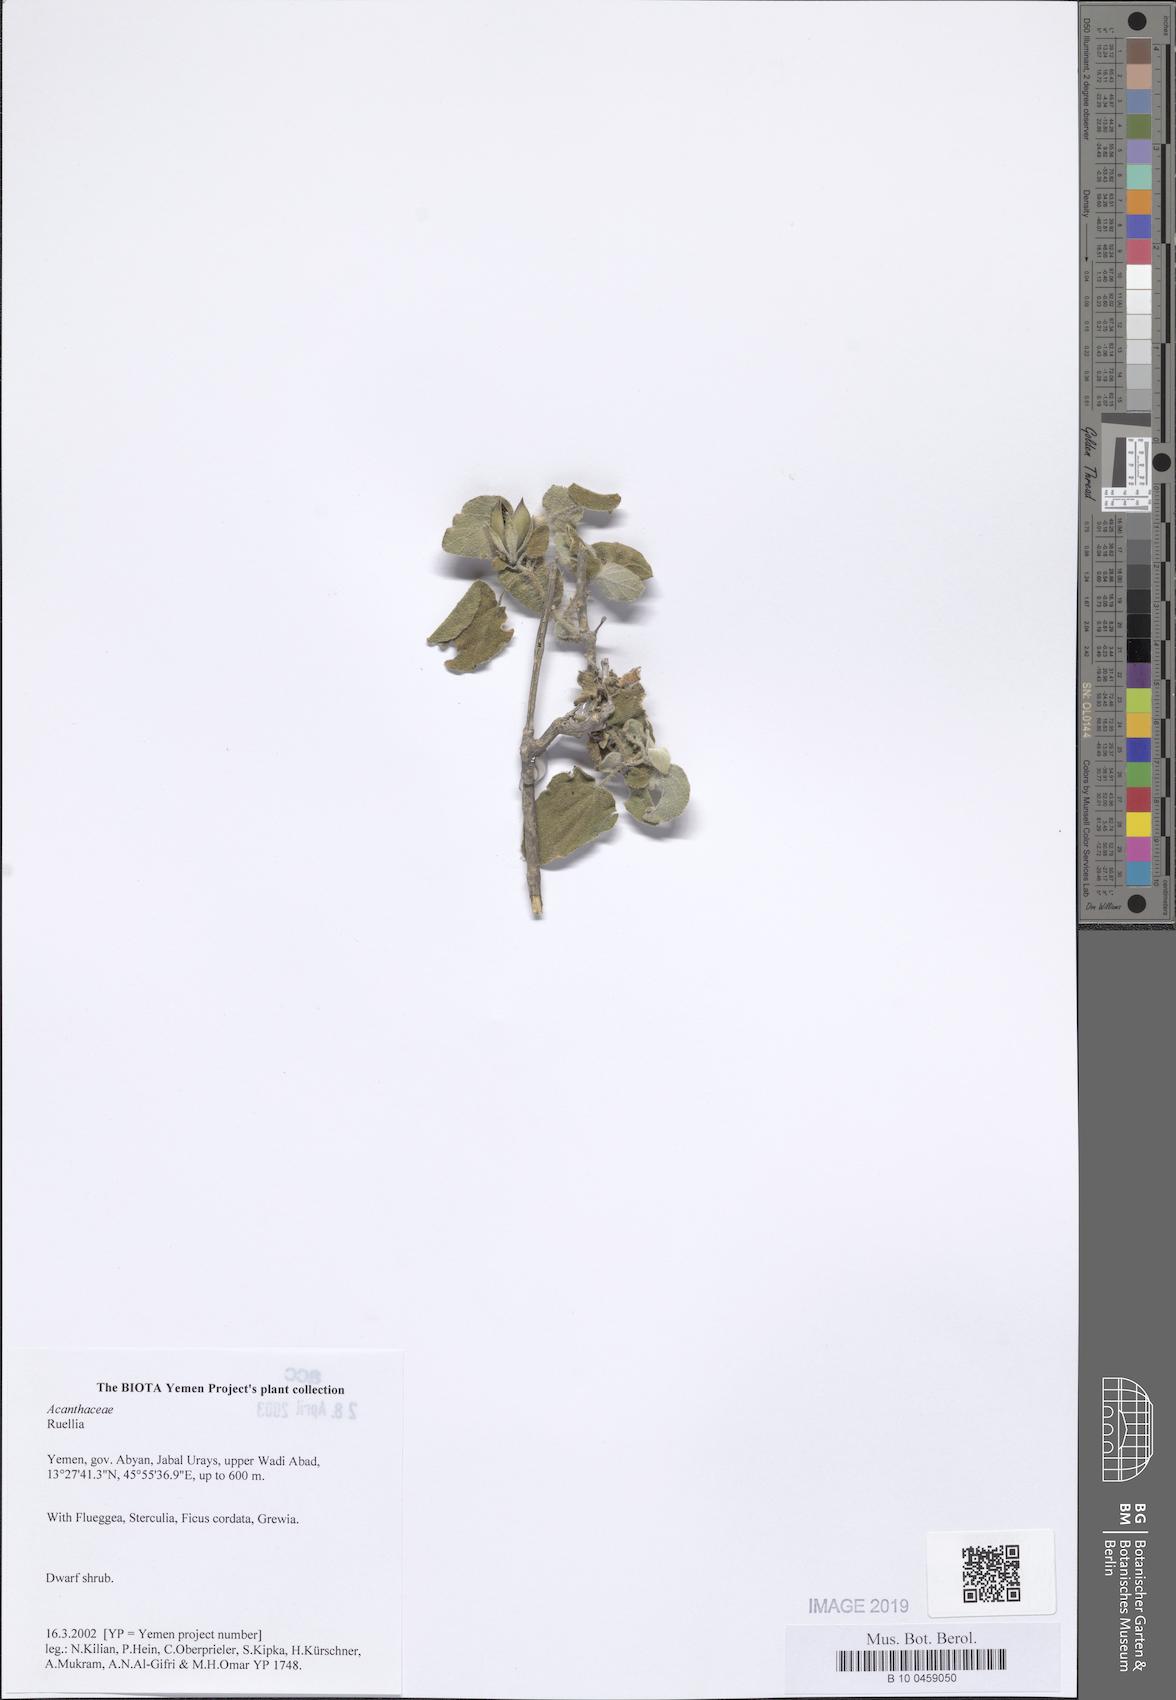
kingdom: Plantae
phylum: Tracheophyta
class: Magnoliopsida
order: Lamiales
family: Acanthaceae
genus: Ruellia
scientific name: Ruellia
